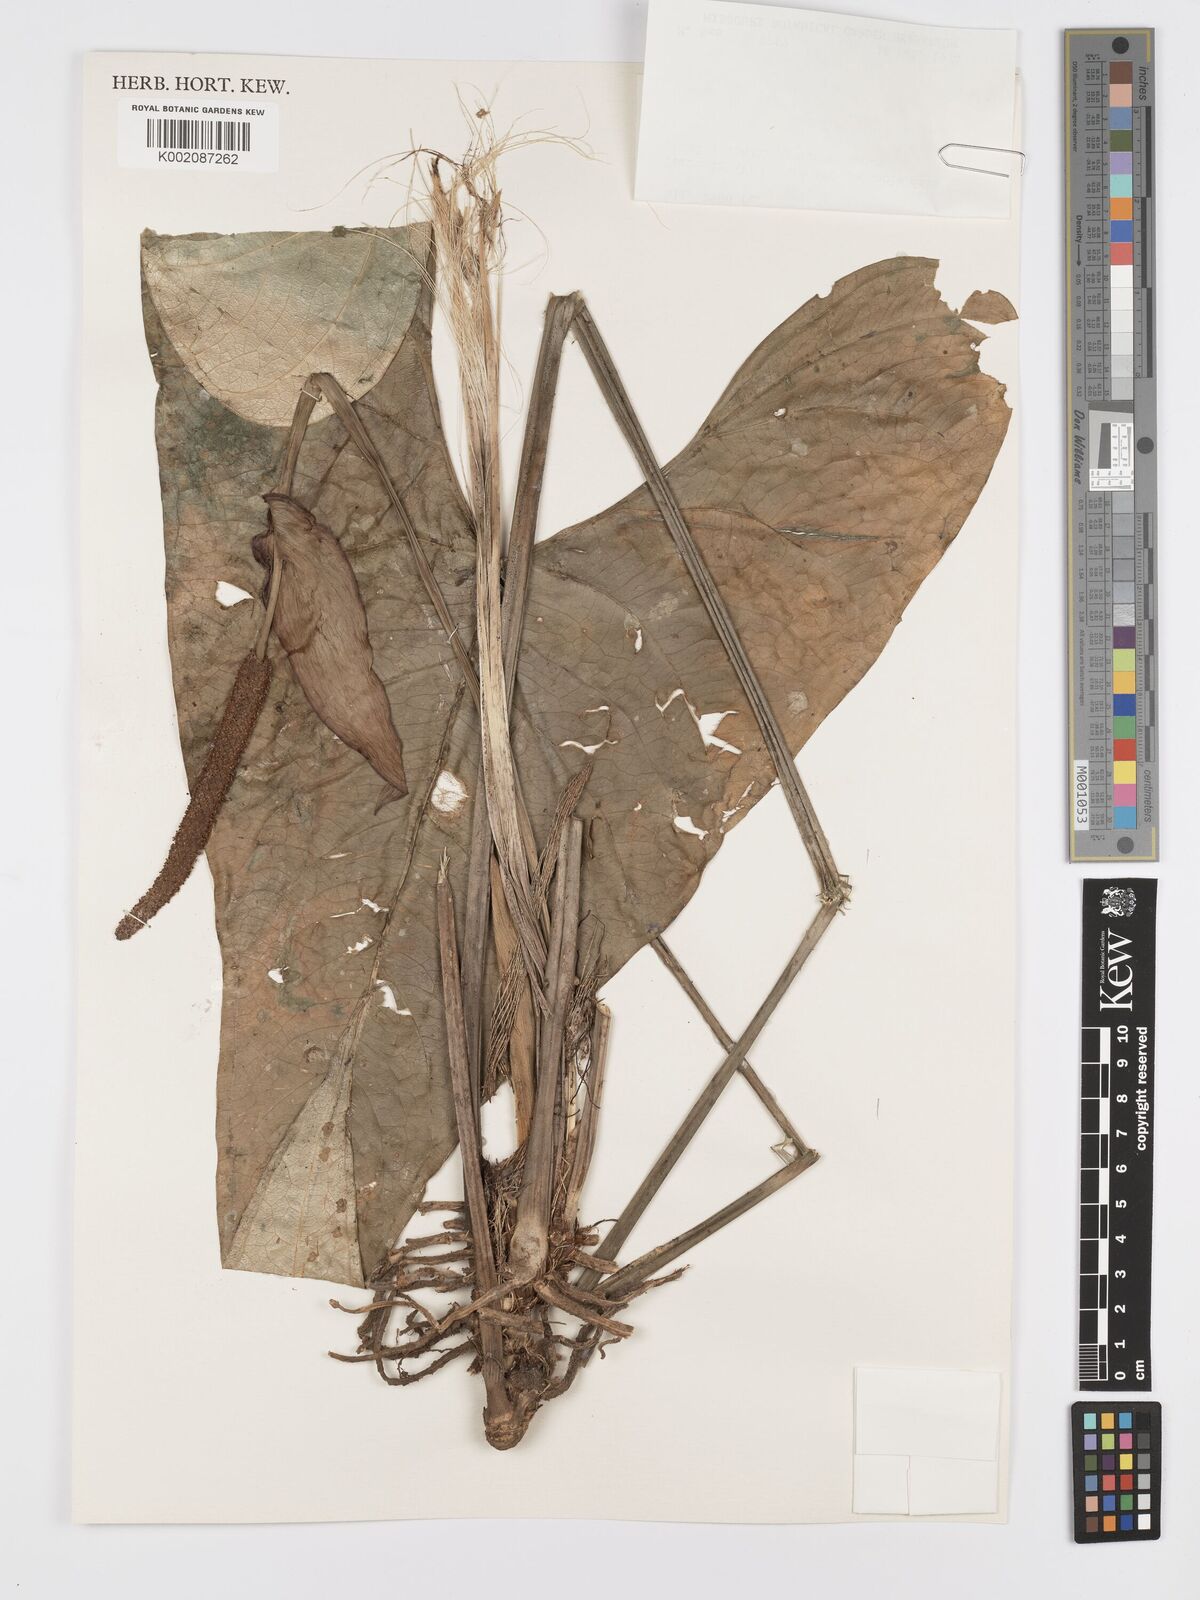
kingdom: Plantae
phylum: Tracheophyta
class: Liliopsida
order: Alismatales
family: Araceae
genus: Anthurium
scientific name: Anthurium watermaliense
